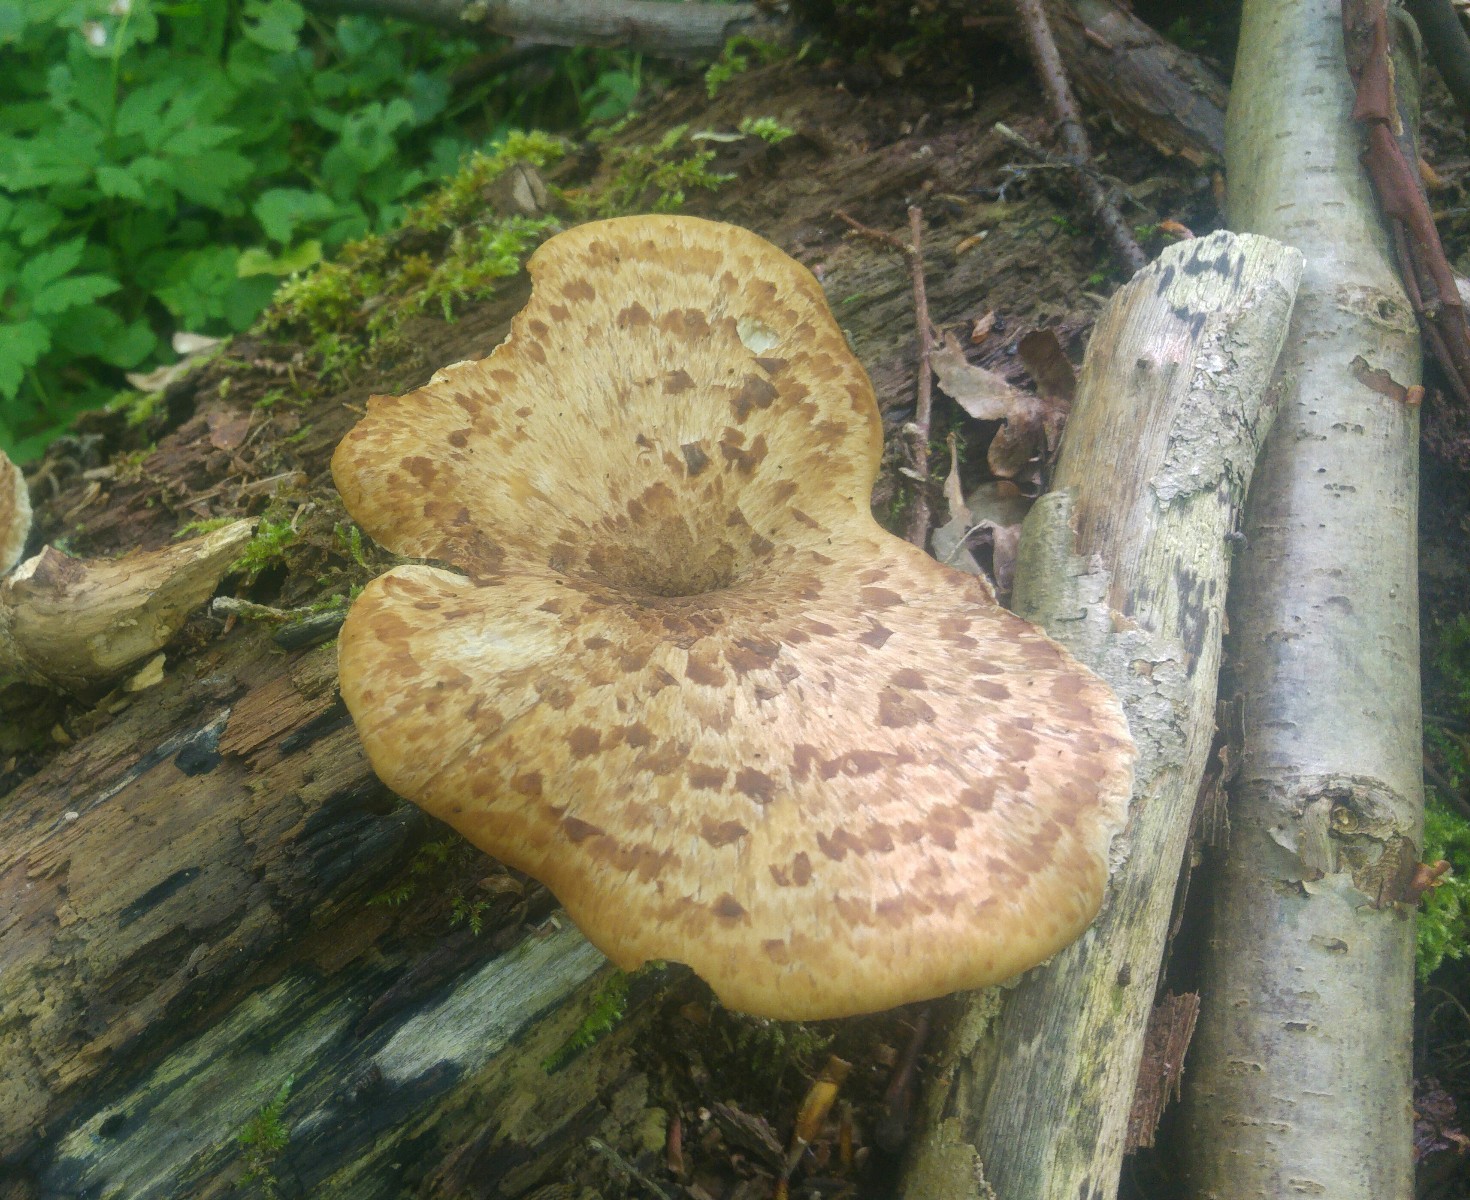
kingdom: Fungi
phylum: Basidiomycota
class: Agaricomycetes
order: Polyporales
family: Polyporaceae
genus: Cerioporus
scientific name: Cerioporus squamosus
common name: skællet stilkporesvamp
